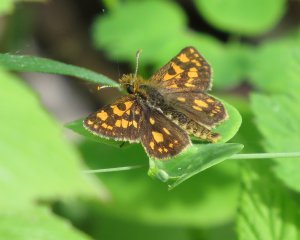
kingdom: Animalia
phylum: Arthropoda
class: Insecta
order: Lepidoptera
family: Hesperiidae
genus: Carterocephalus
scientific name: Carterocephalus palaemon
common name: Chequered Skipper
